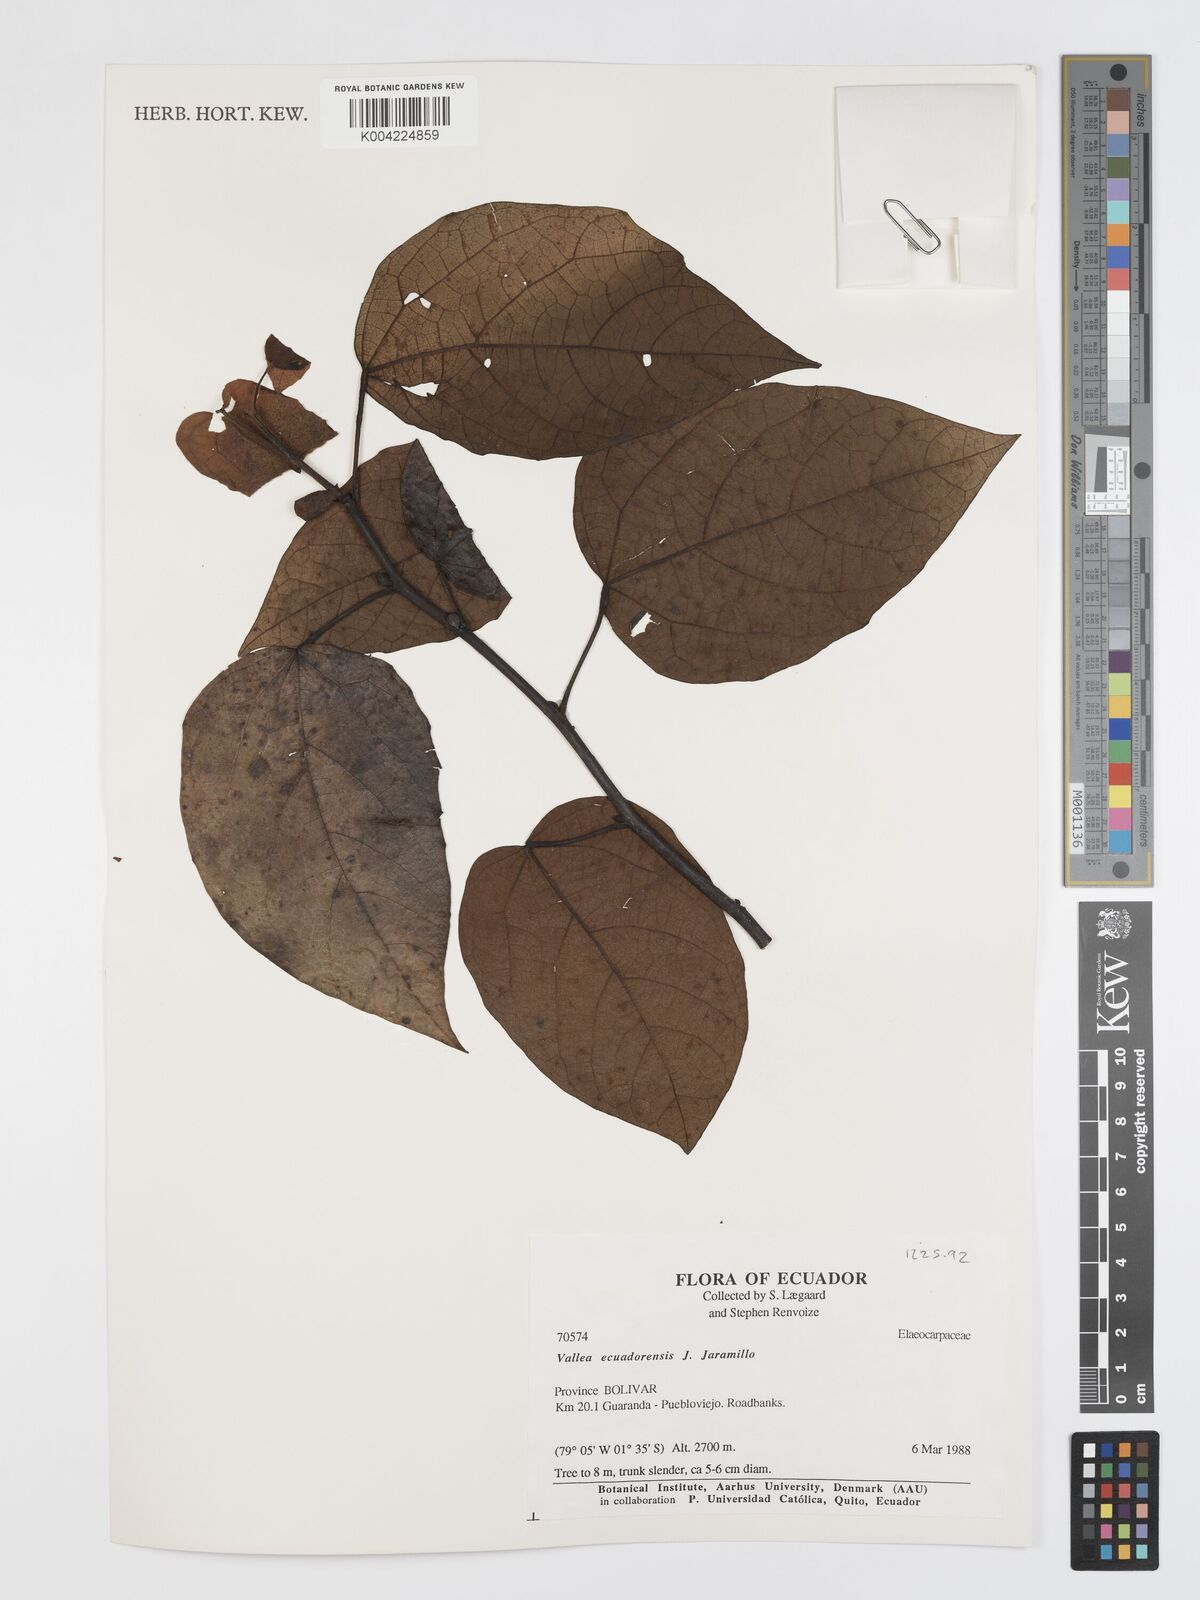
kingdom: Plantae
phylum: Tracheophyta
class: Magnoliopsida
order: Oxalidales
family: Elaeocarpaceae
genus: Vallea
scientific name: Vallea ecuadorensis
